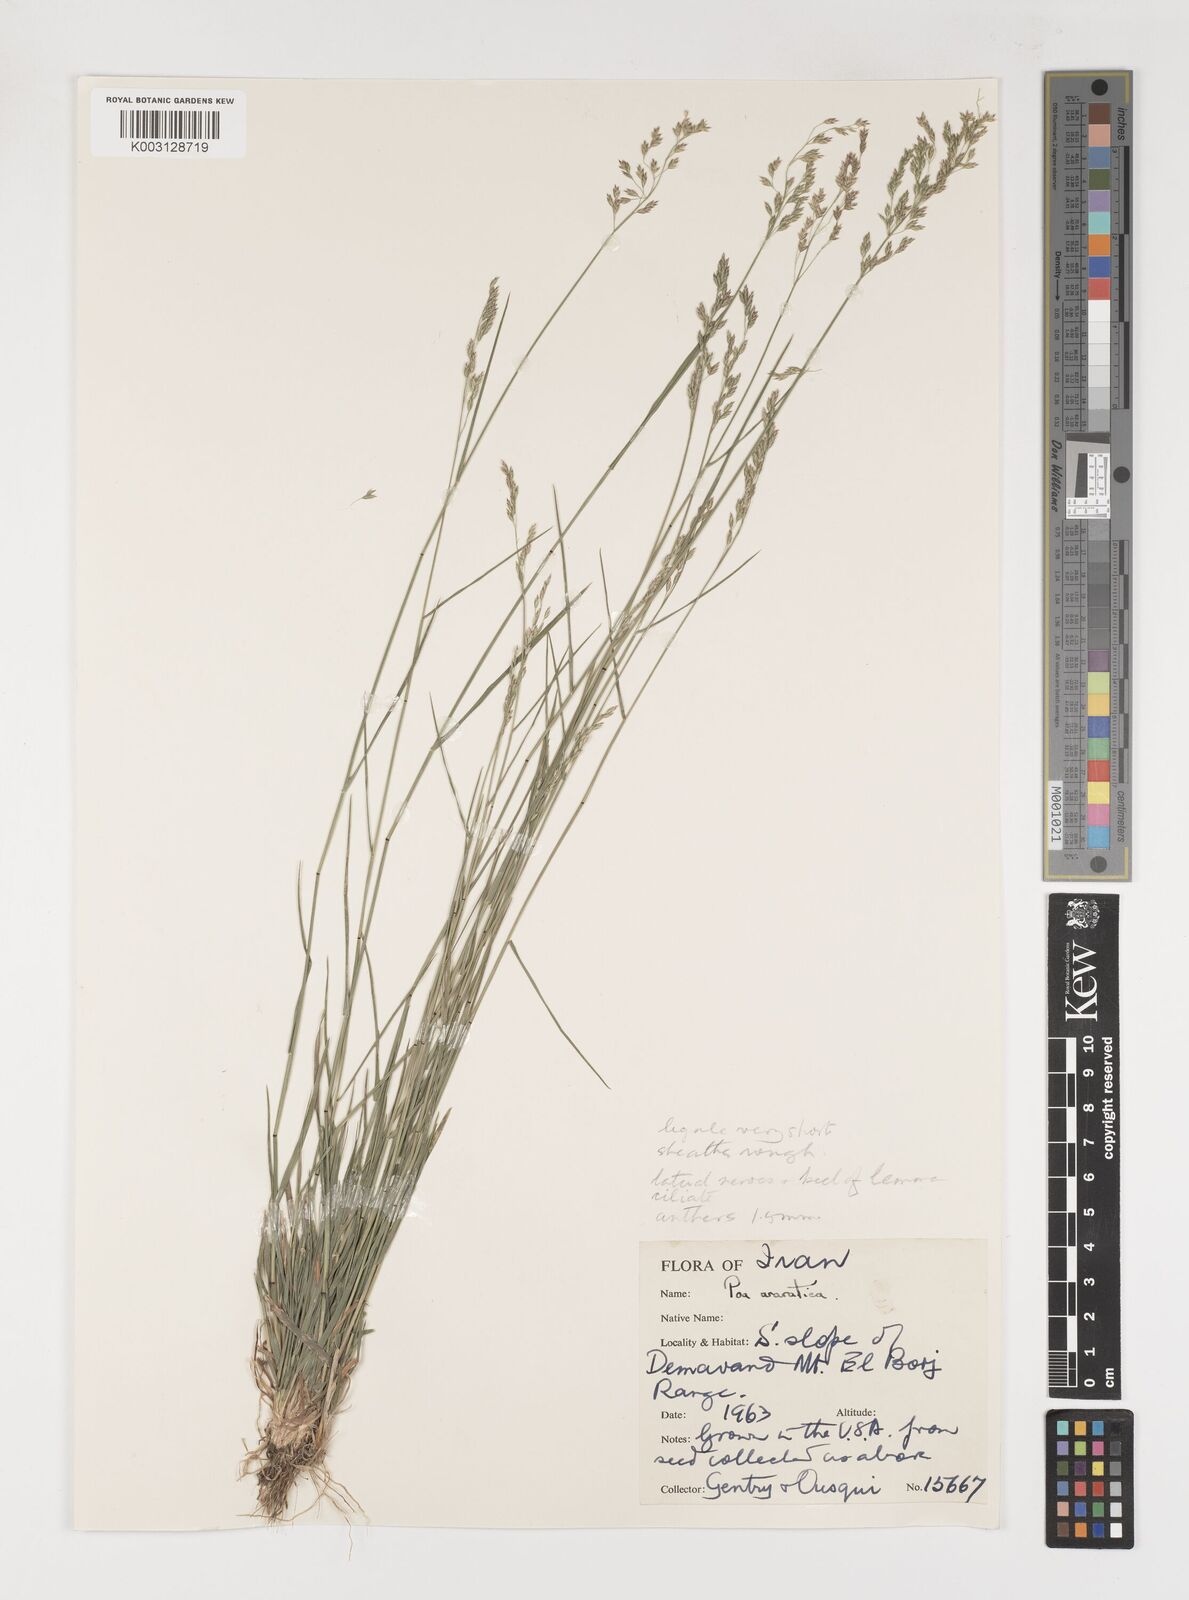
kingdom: Plantae
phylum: Tracheophyta
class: Liliopsida
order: Poales
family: Poaceae
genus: Poa
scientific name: Poa araratica
